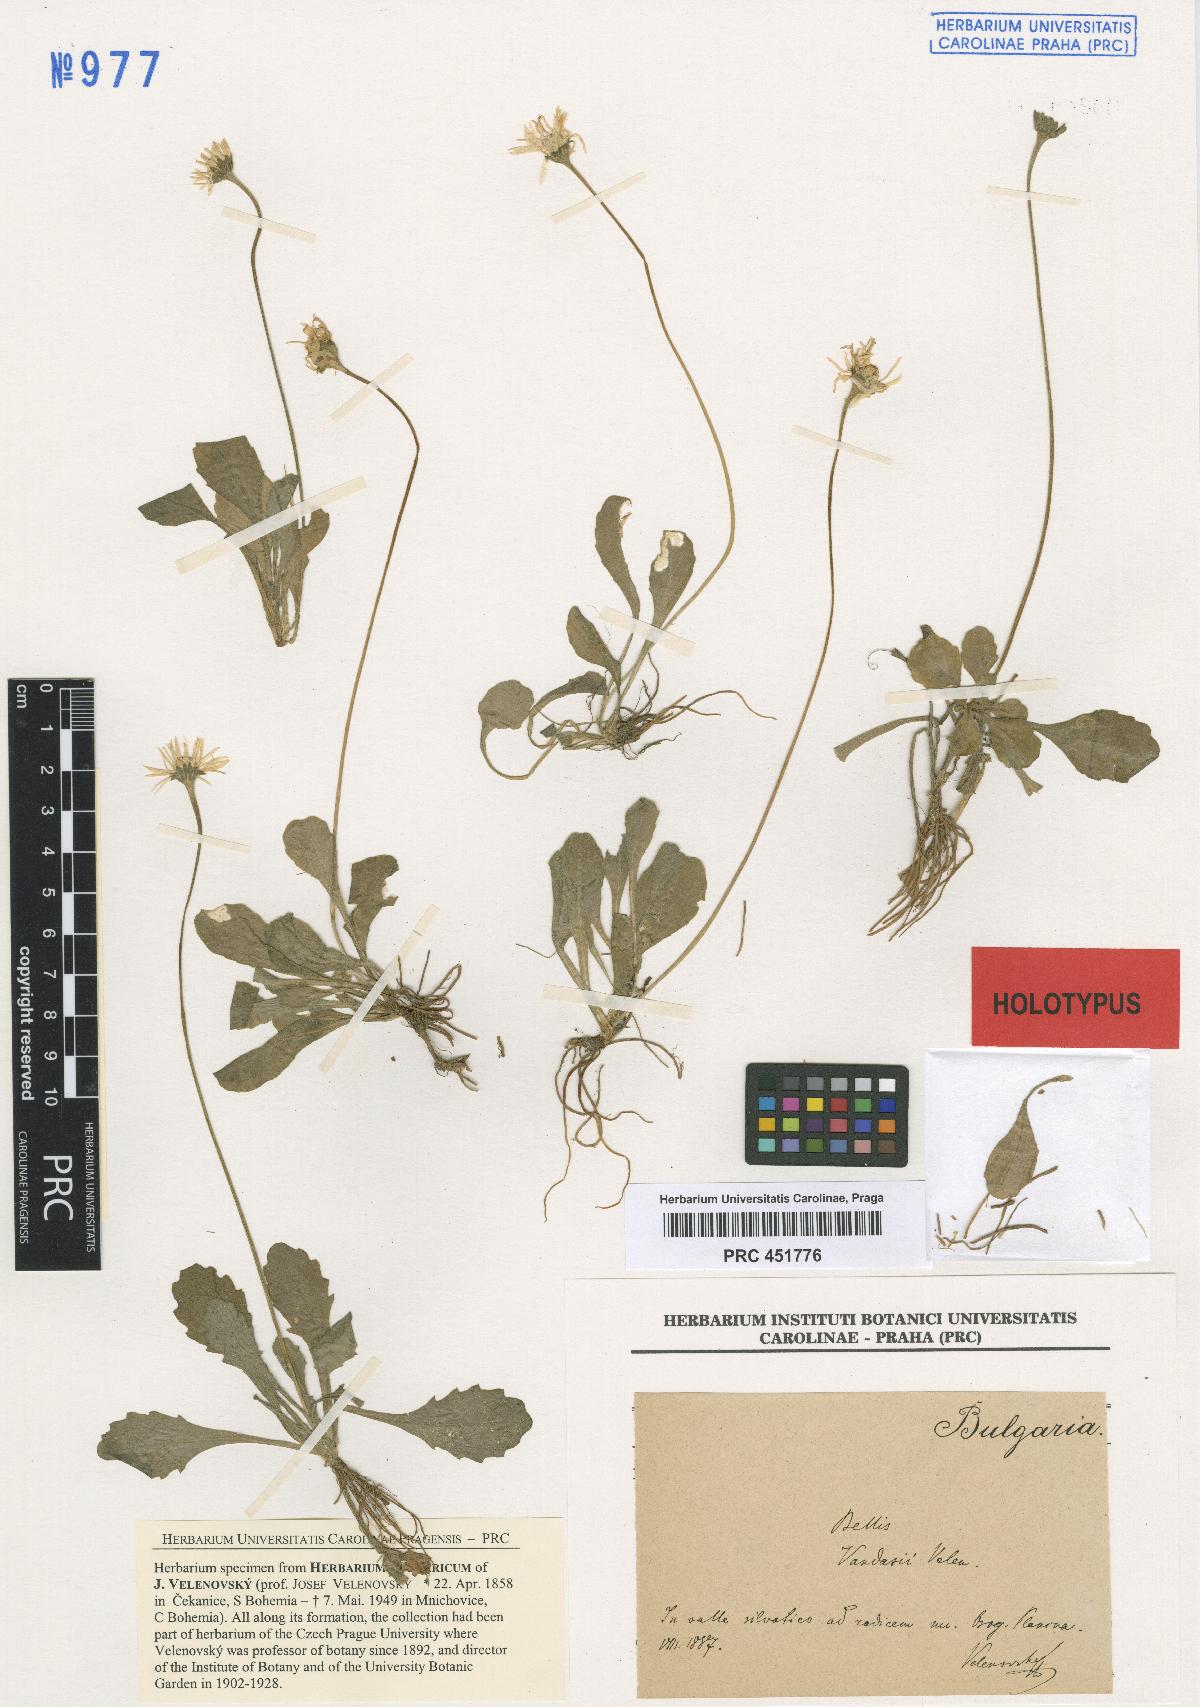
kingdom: Plantae
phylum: Tracheophyta
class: Magnoliopsida
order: Asterales
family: Asteraceae
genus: Bellis
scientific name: Bellis annua
